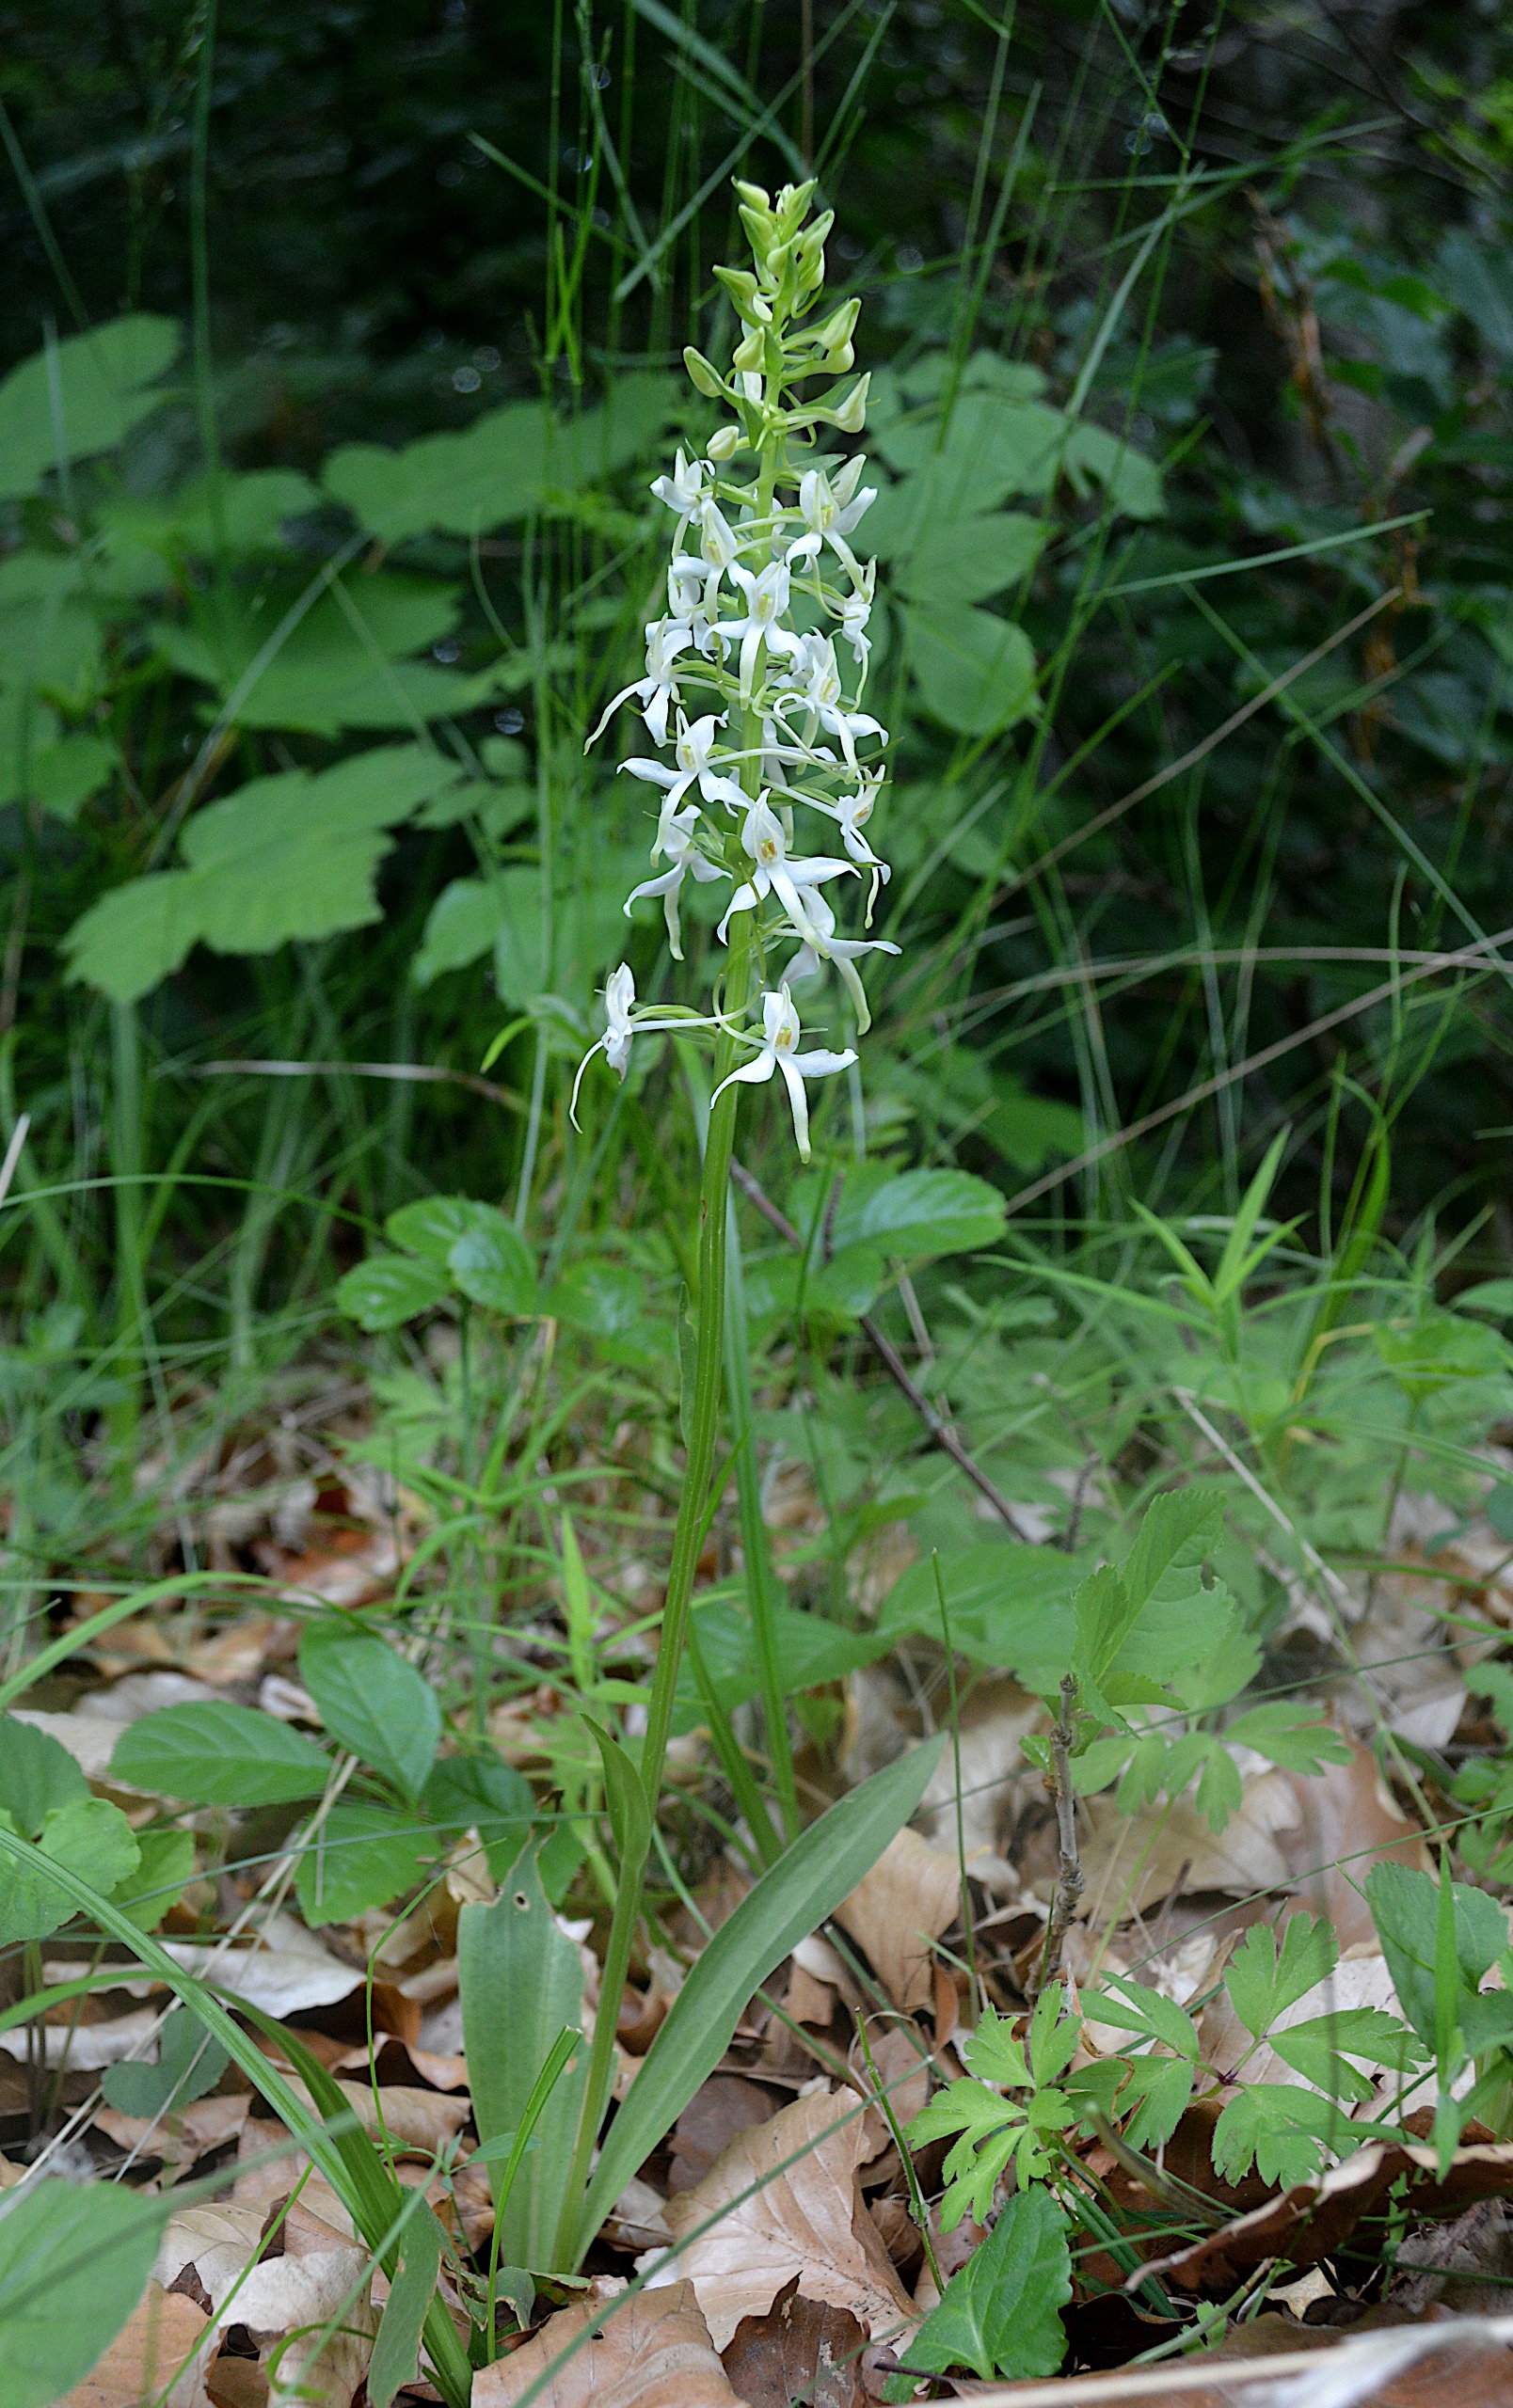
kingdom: Plantae
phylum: Tracheophyta
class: Liliopsida
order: Asparagales
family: Orchidaceae
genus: Platanthera
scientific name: Platanthera bifolia
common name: Langsporet gøgelilje
